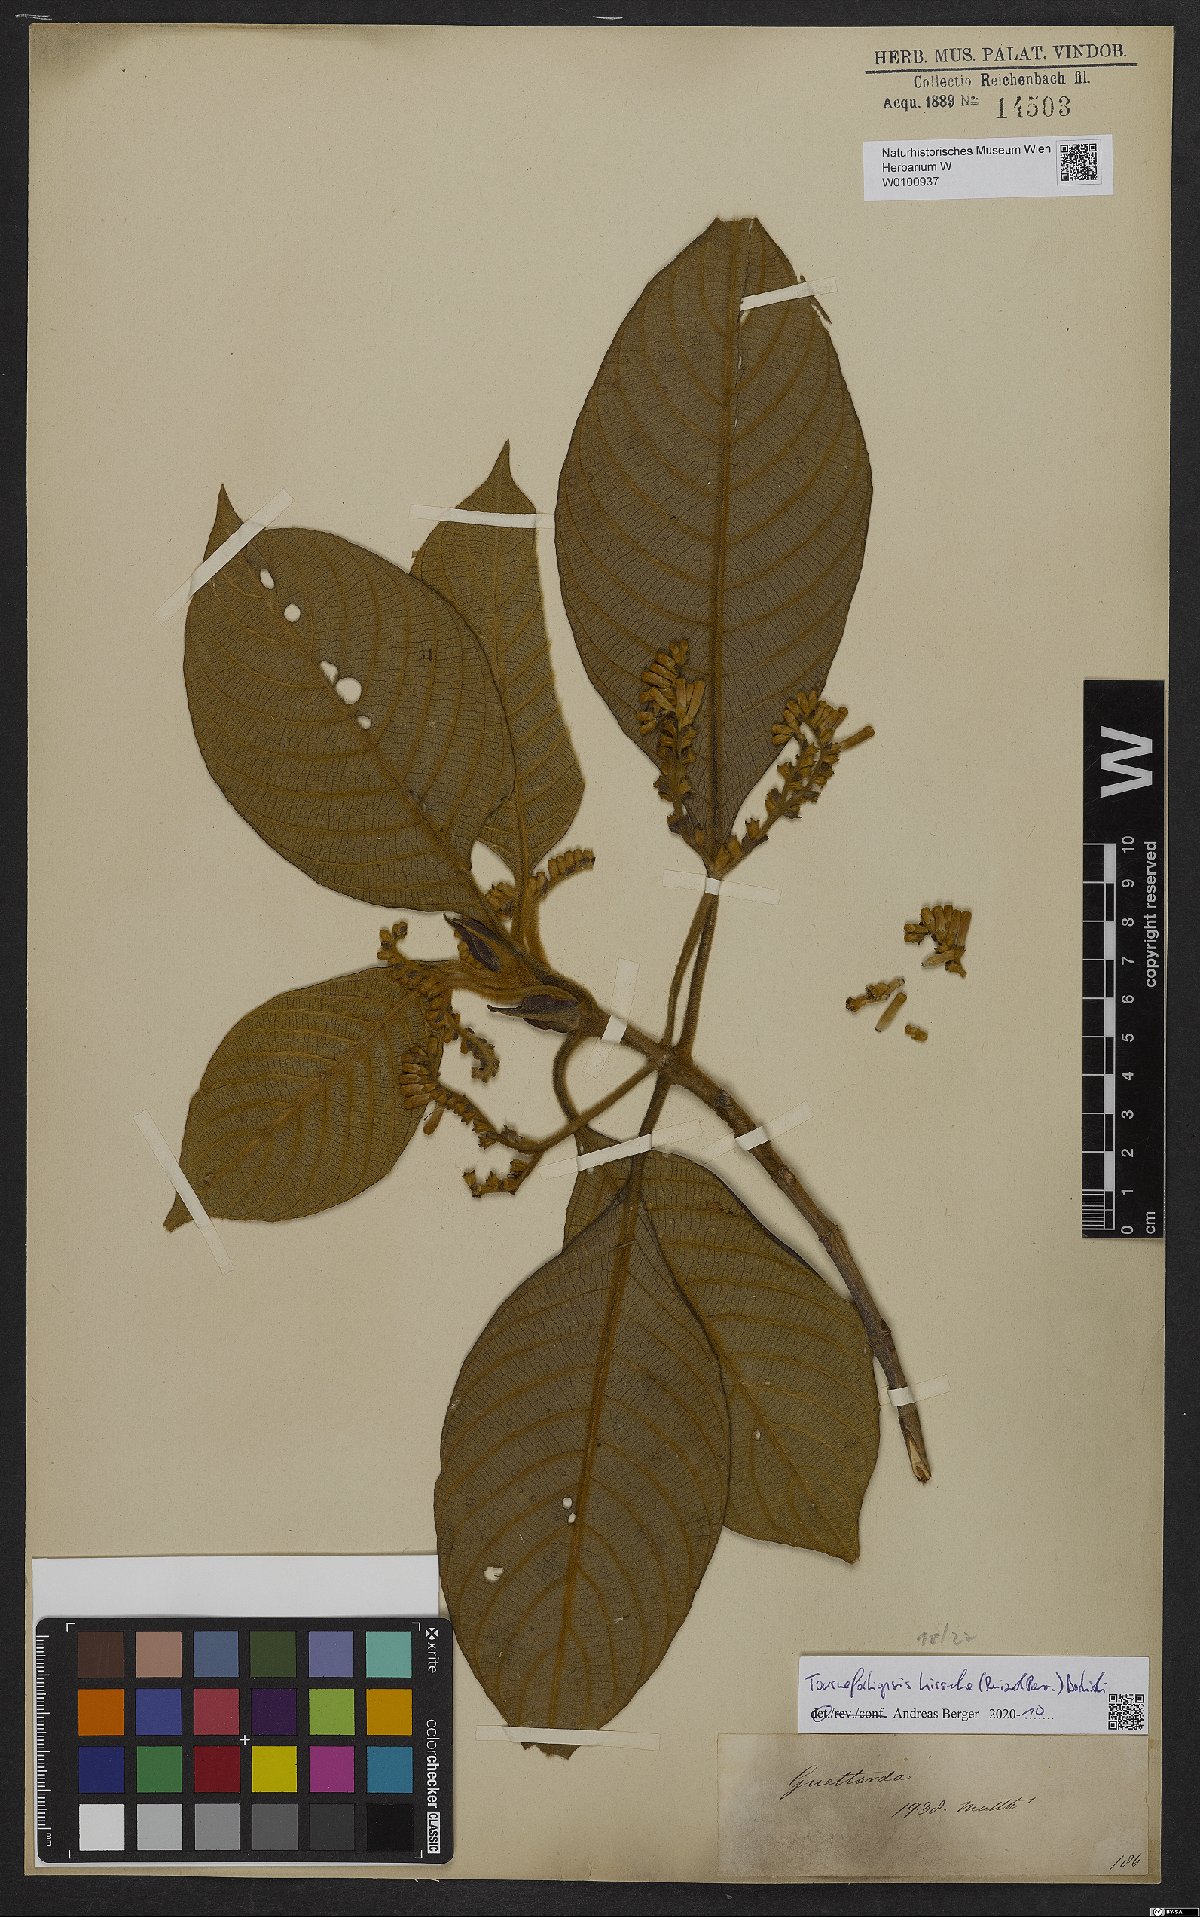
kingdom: Plantae
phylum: Tracheophyta
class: Magnoliopsida
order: Gentianales
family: Rubiaceae
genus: Tournefortiopsis
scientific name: Tournefortiopsis hirsuta
